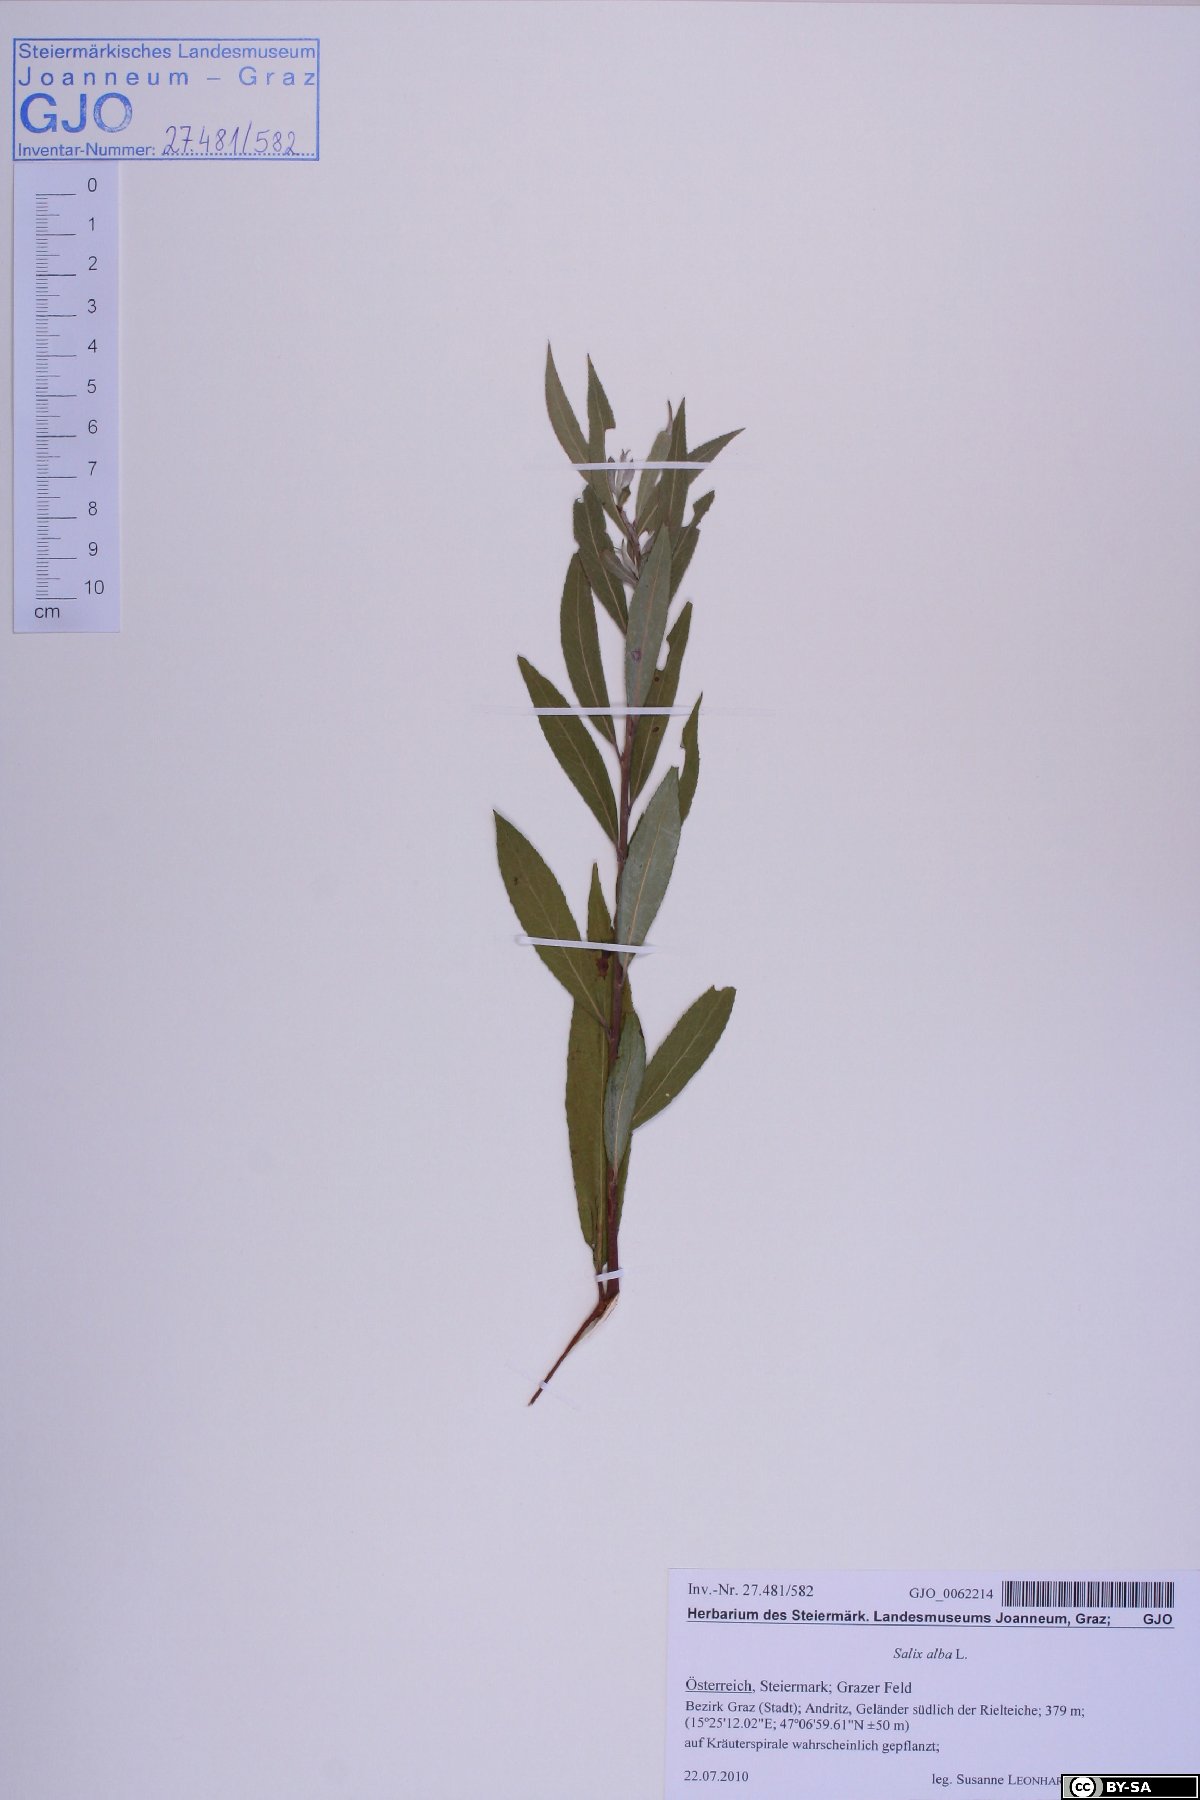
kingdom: Plantae
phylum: Tracheophyta
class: Magnoliopsida
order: Malpighiales
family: Salicaceae
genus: Salix
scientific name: Salix alba
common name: White willow
